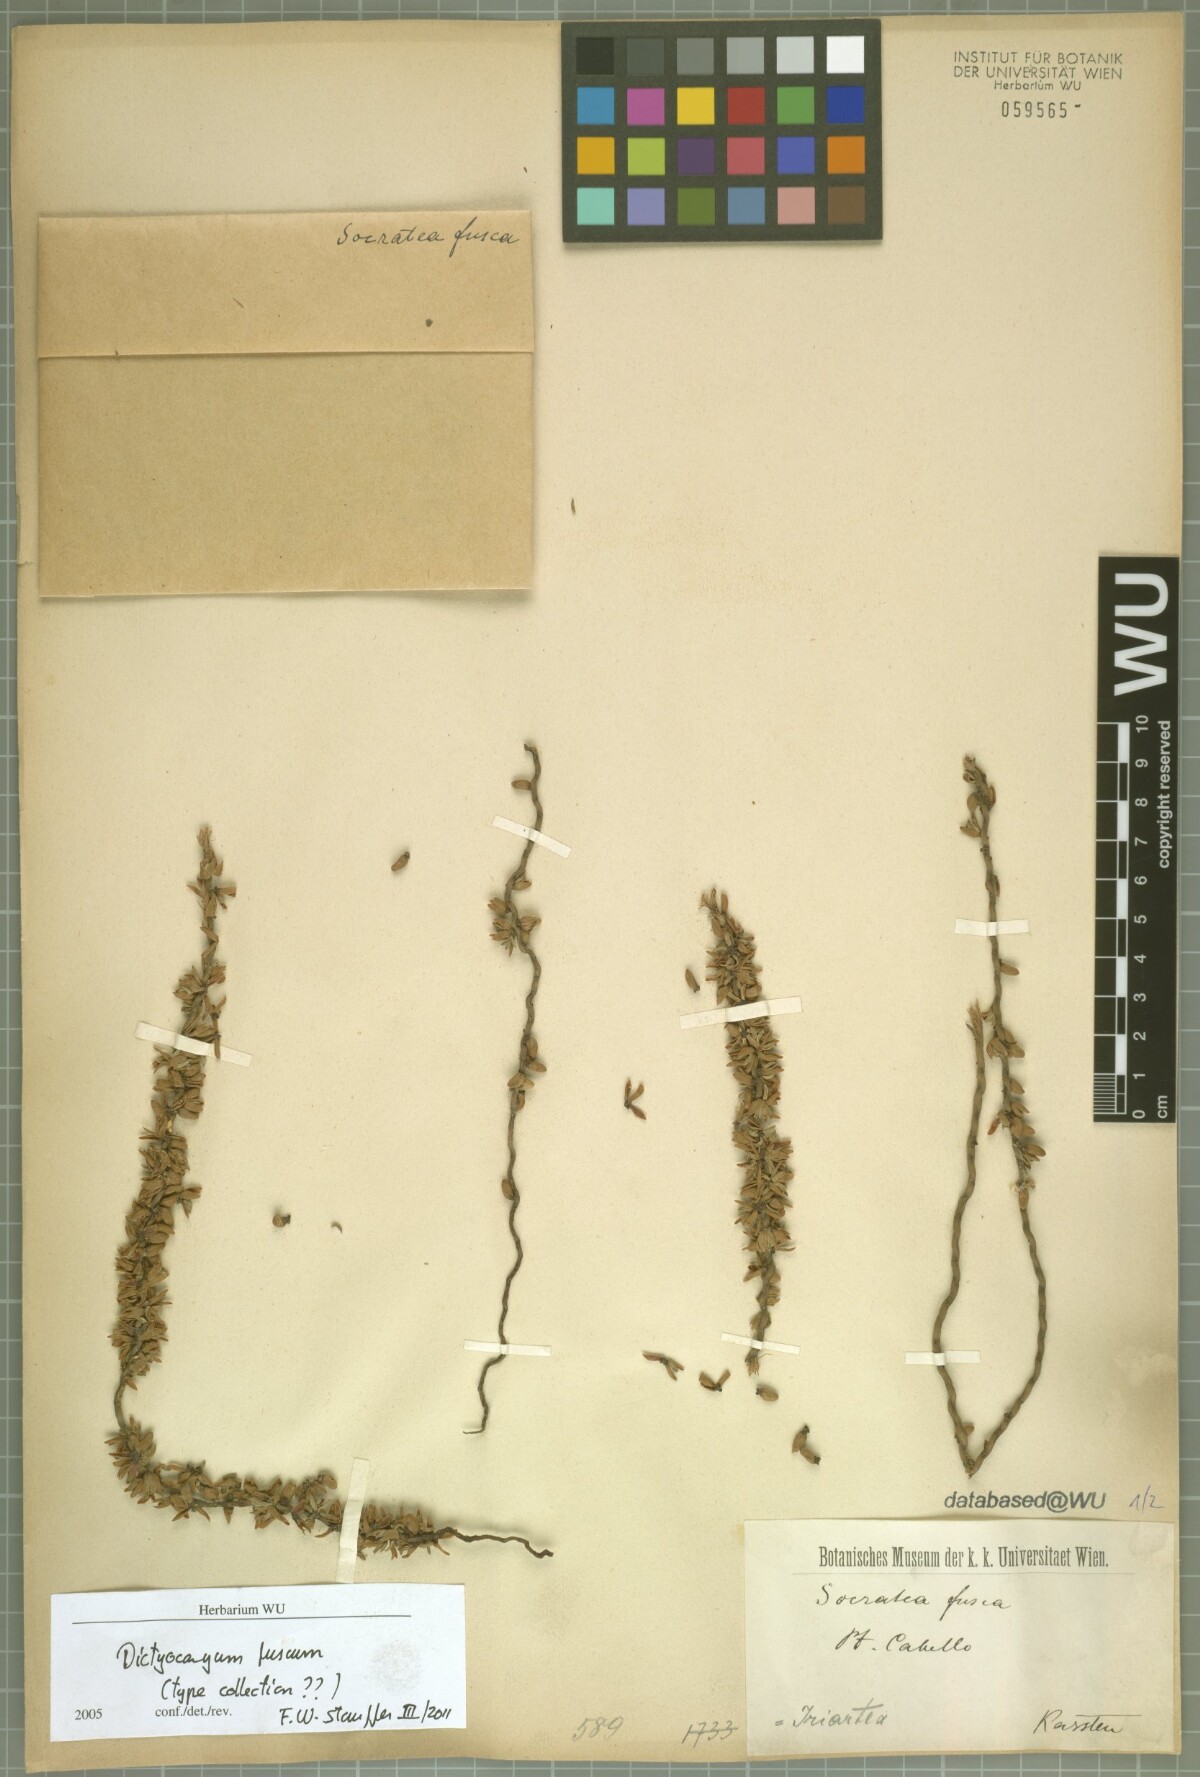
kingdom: Plantae
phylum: Tracheophyta
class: Liliopsida
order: Arecales
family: Arecaceae
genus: Dictyocaryum
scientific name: Dictyocaryum fuscum
